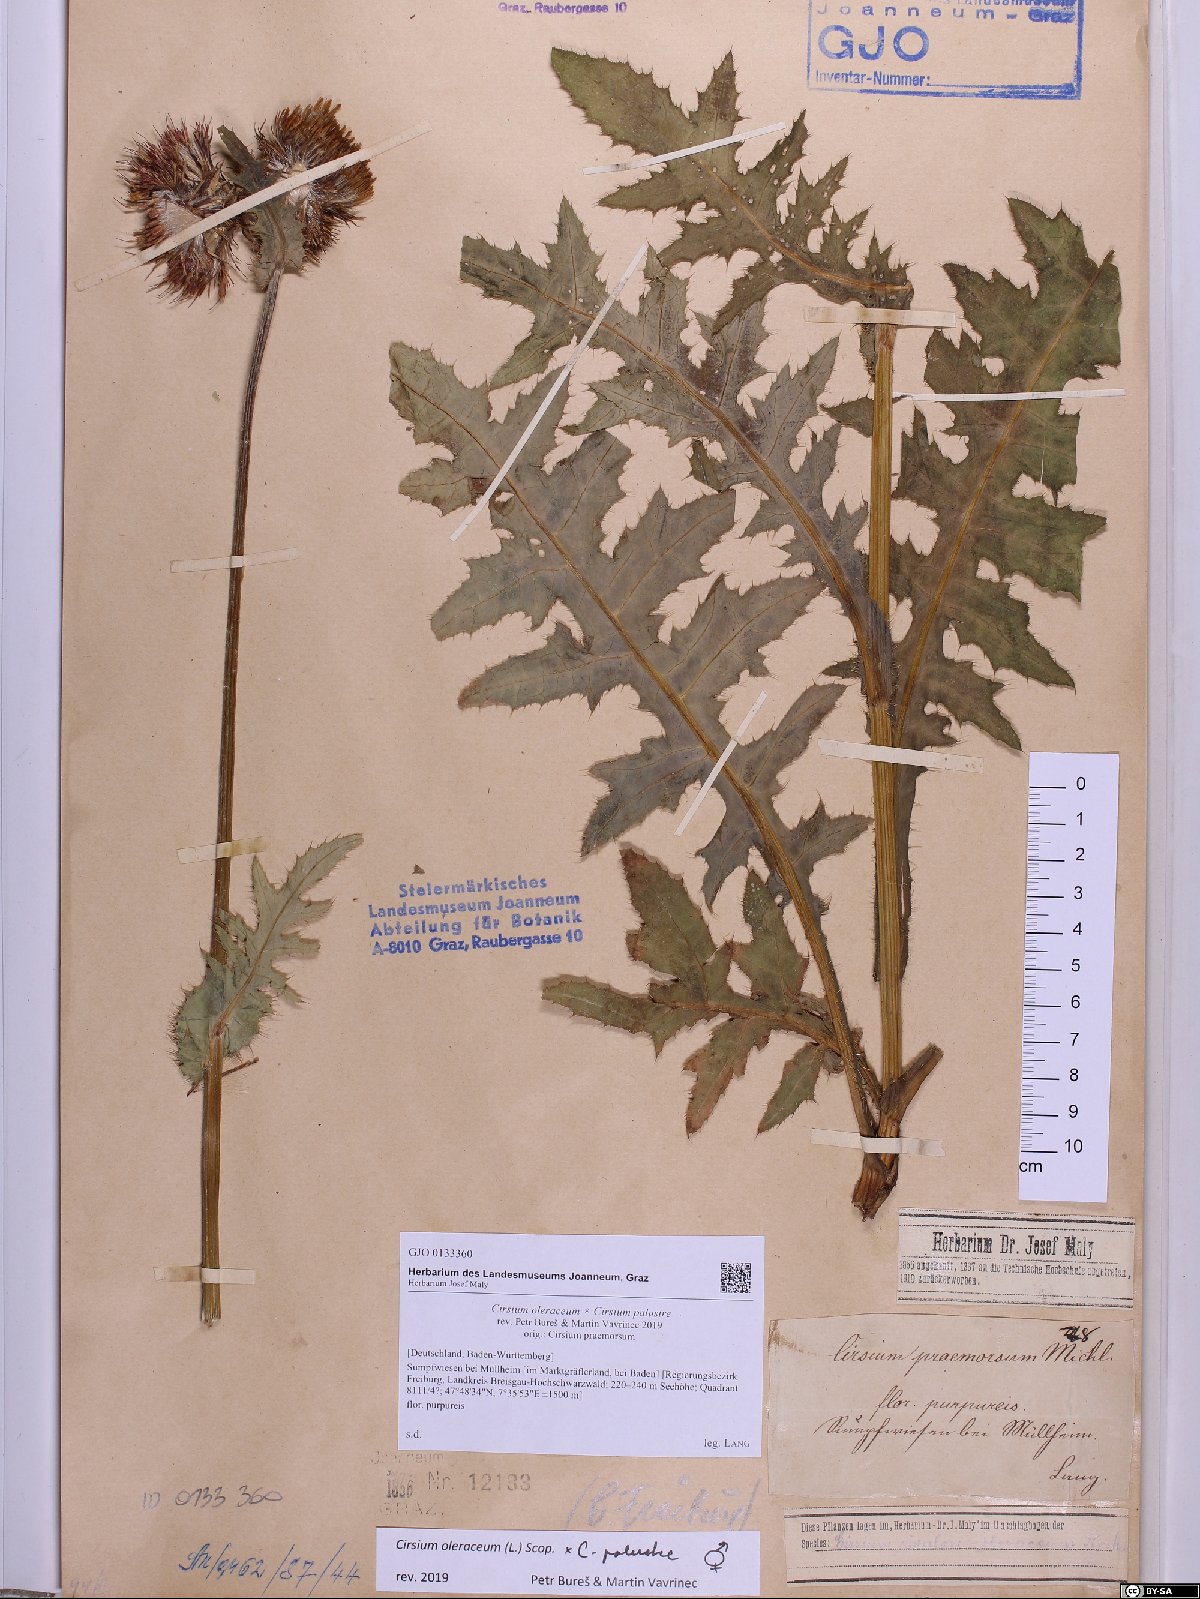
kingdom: Plantae
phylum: Tracheophyta
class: Magnoliopsida
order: Asterales
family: Asteraceae
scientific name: Asteraceae
